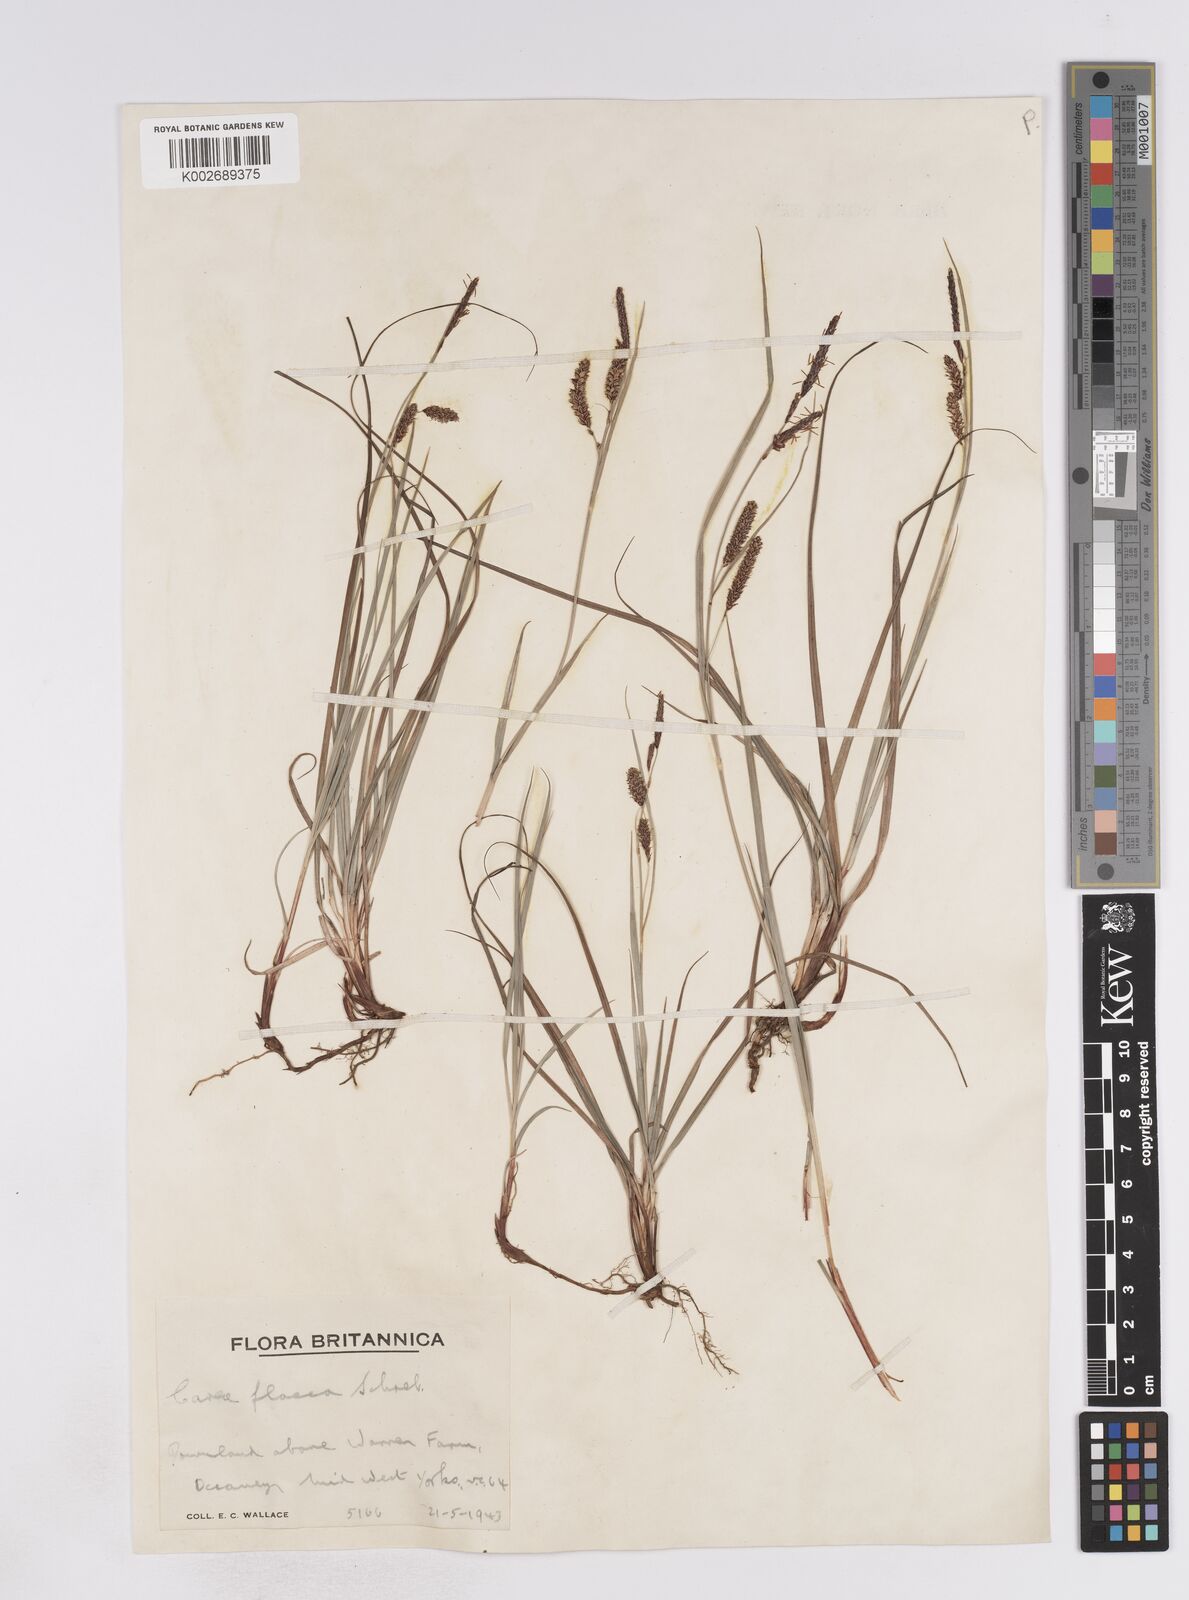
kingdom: Plantae
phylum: Tracheophyta
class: Liliopsida
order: Poales
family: Cyperaceae
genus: Carex
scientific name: Carex flacca
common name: Glaucous sedge
